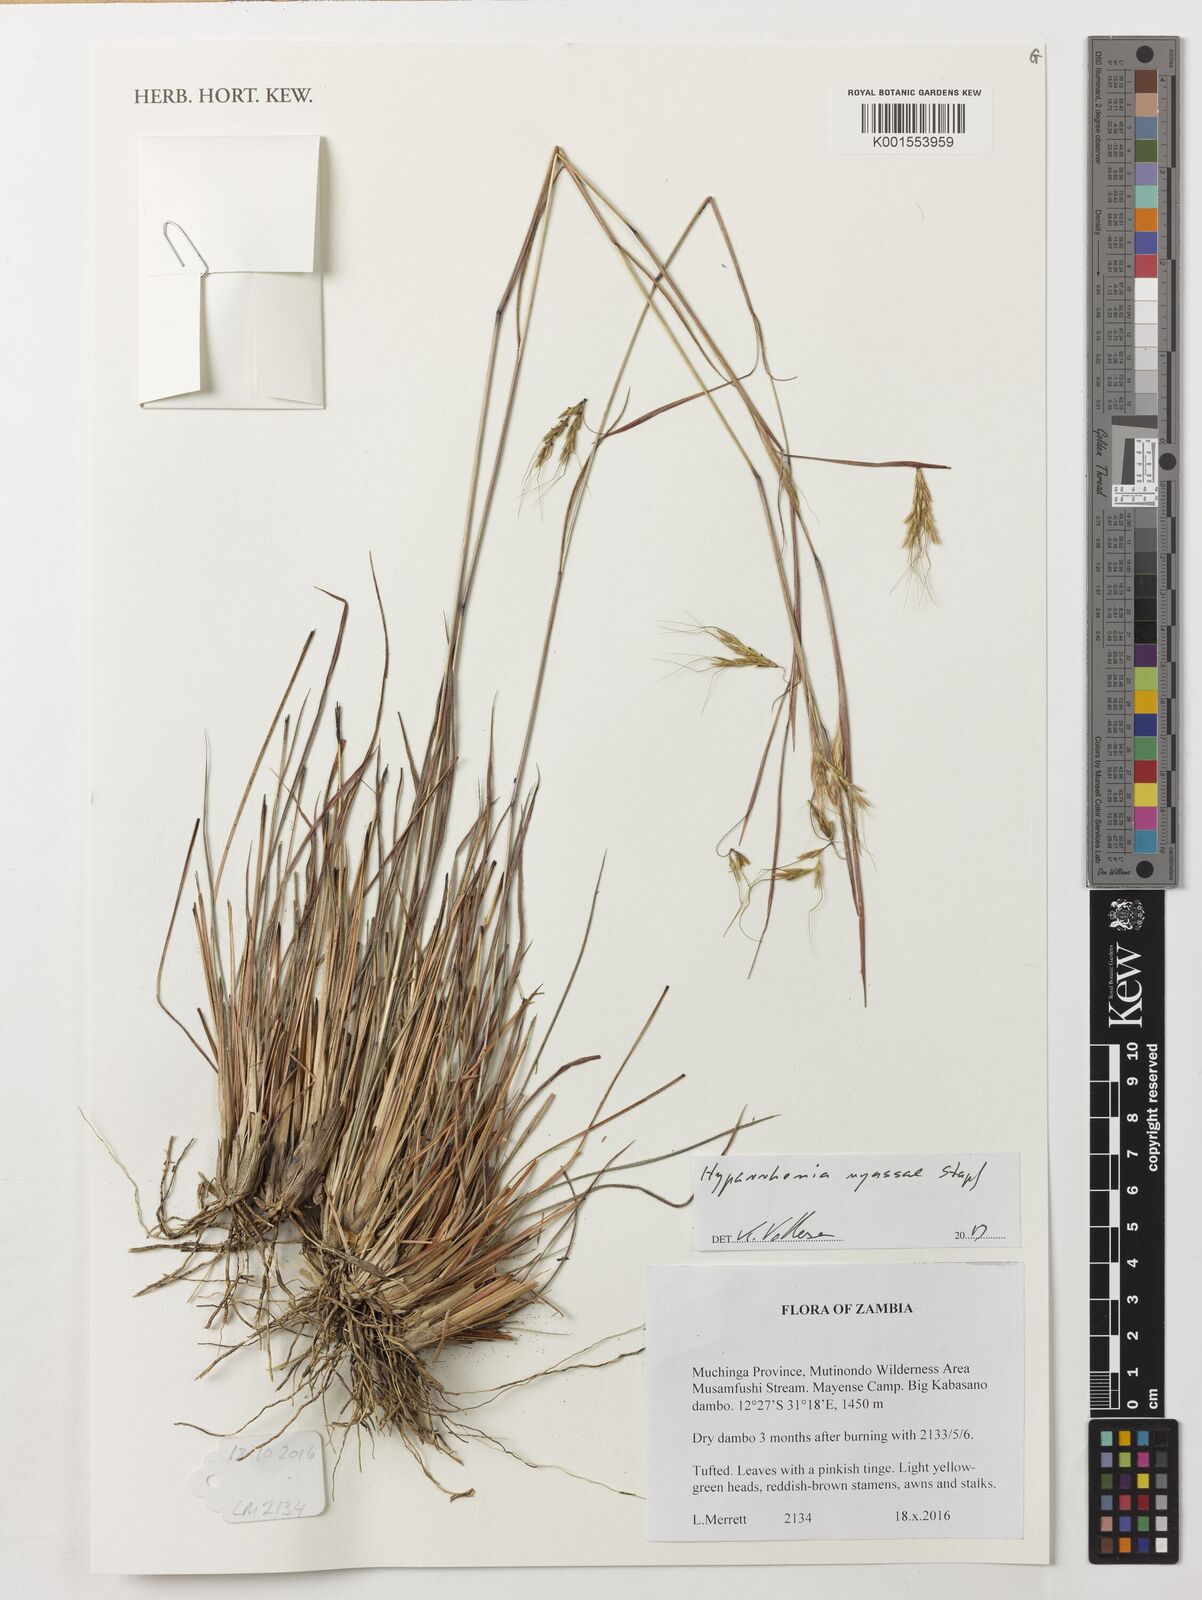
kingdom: Plantae
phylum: Tracheophyta
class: Liliopsida
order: Poales
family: Poaceae
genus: Hyparrhenia
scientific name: Hyparrhenia nyassae
